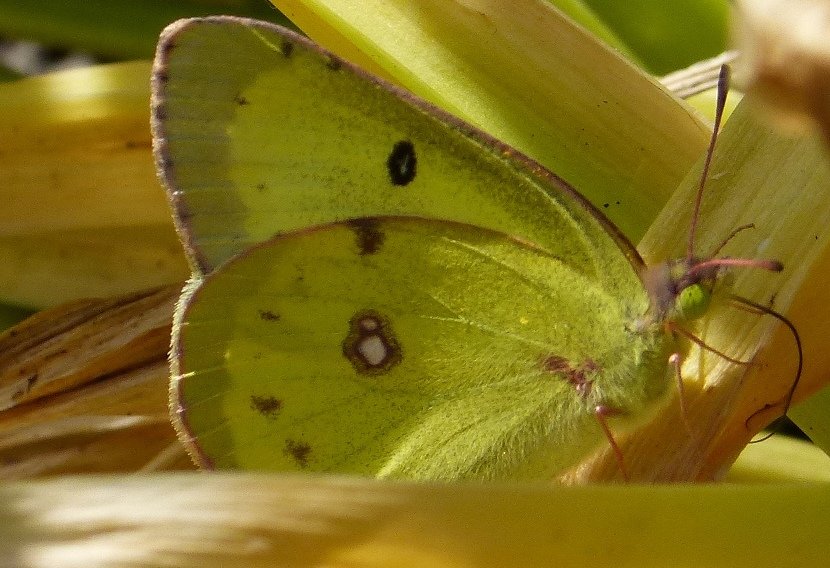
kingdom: Animalia
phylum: Arthropoda
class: Insecta
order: Lepidoptera
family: Pieridae
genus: Colias
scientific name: Colias philodice
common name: Clouded Sulphur
